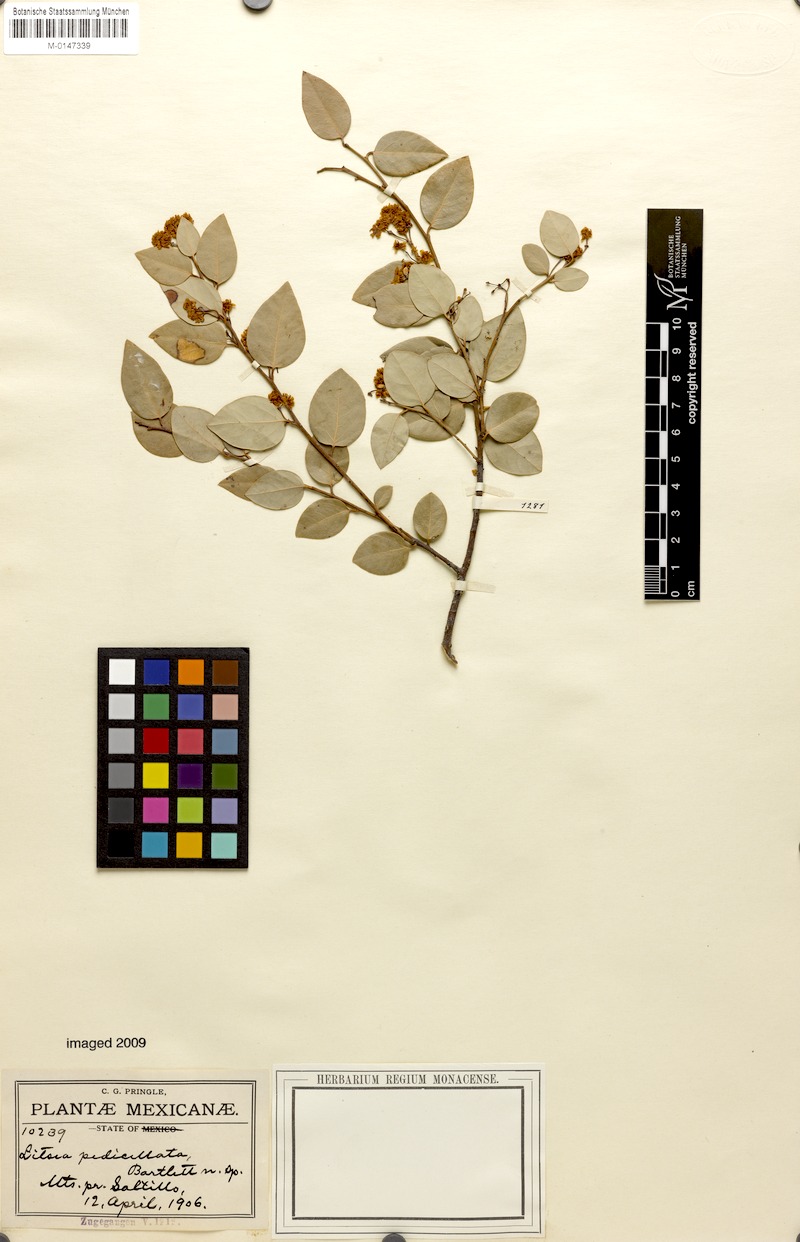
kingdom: Plantae
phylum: Tracheophyta
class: Magnoliopsida
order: Laurales
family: Lauraceae
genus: Litsea
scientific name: Litsea parvifolia
